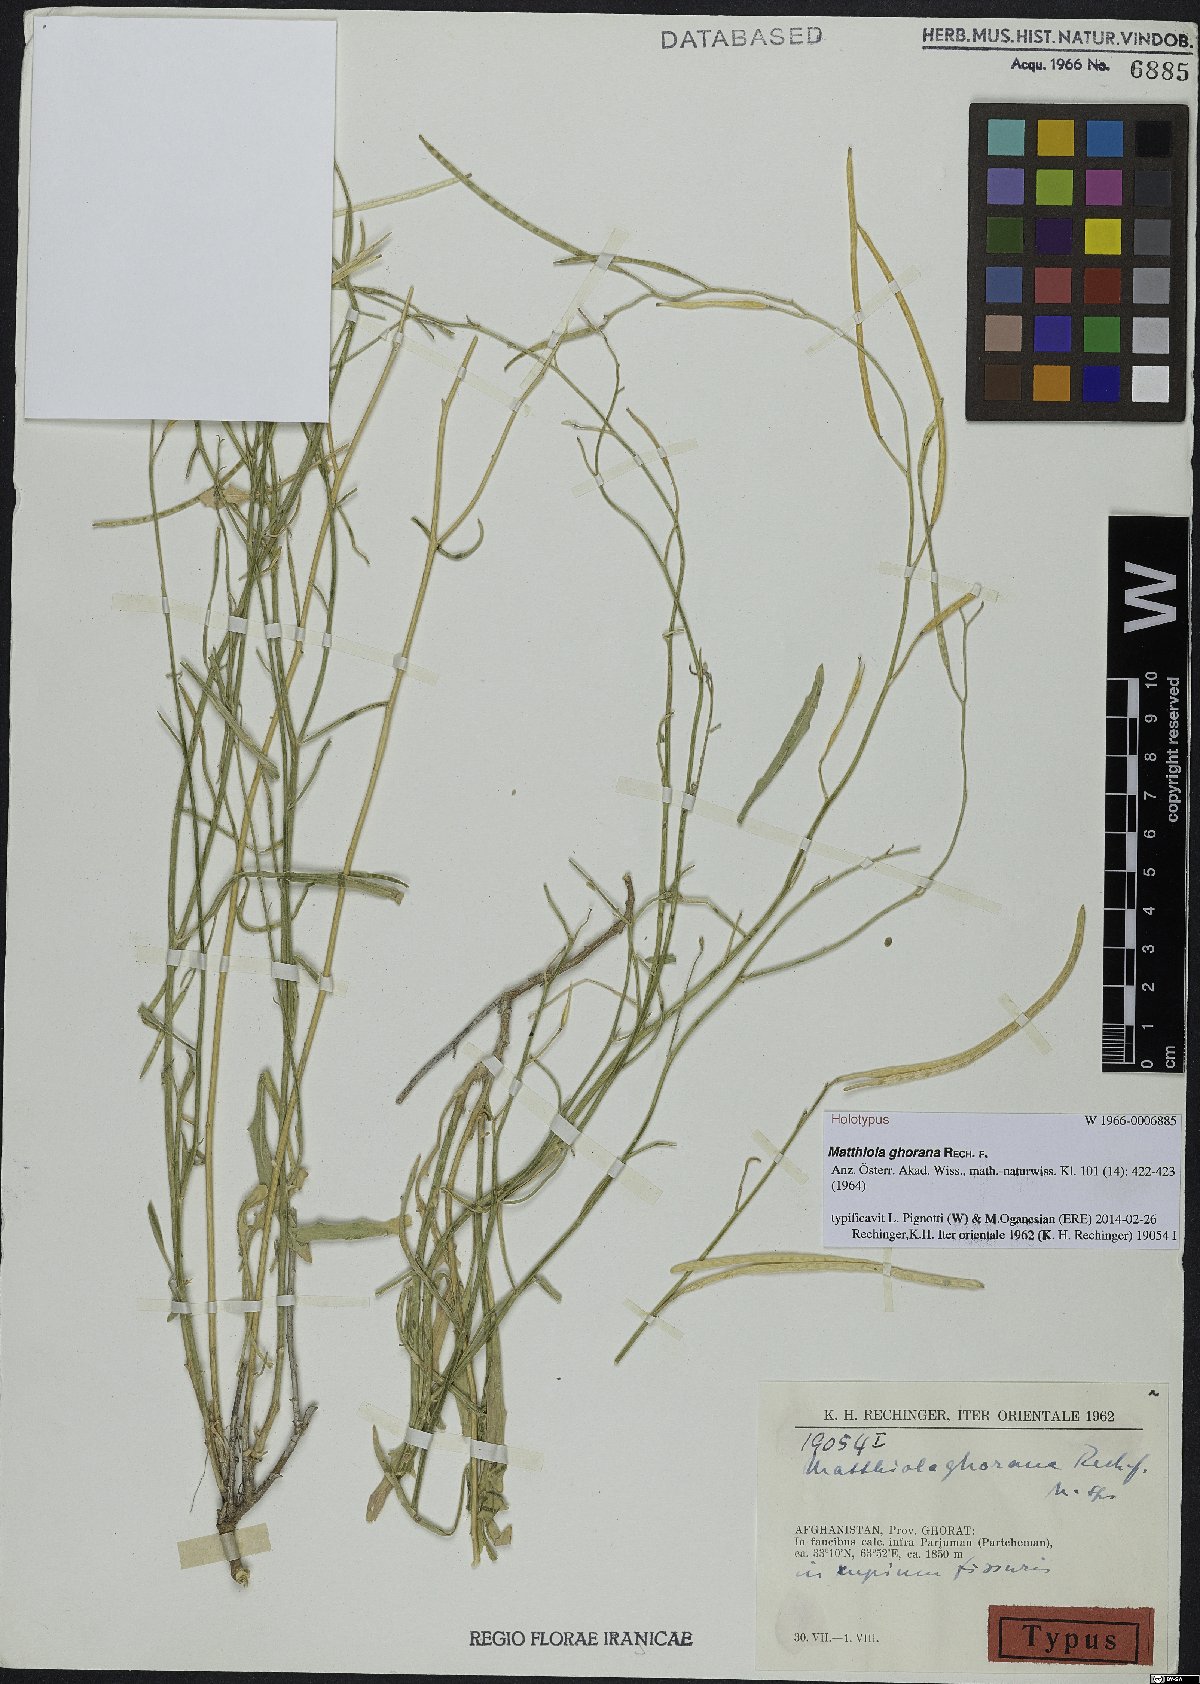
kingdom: Plantae
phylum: Tracheophyta
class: Magnoliopsida
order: Brassicales
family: Brassicaceae
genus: Matthiola
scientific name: Matthiola ghorana
